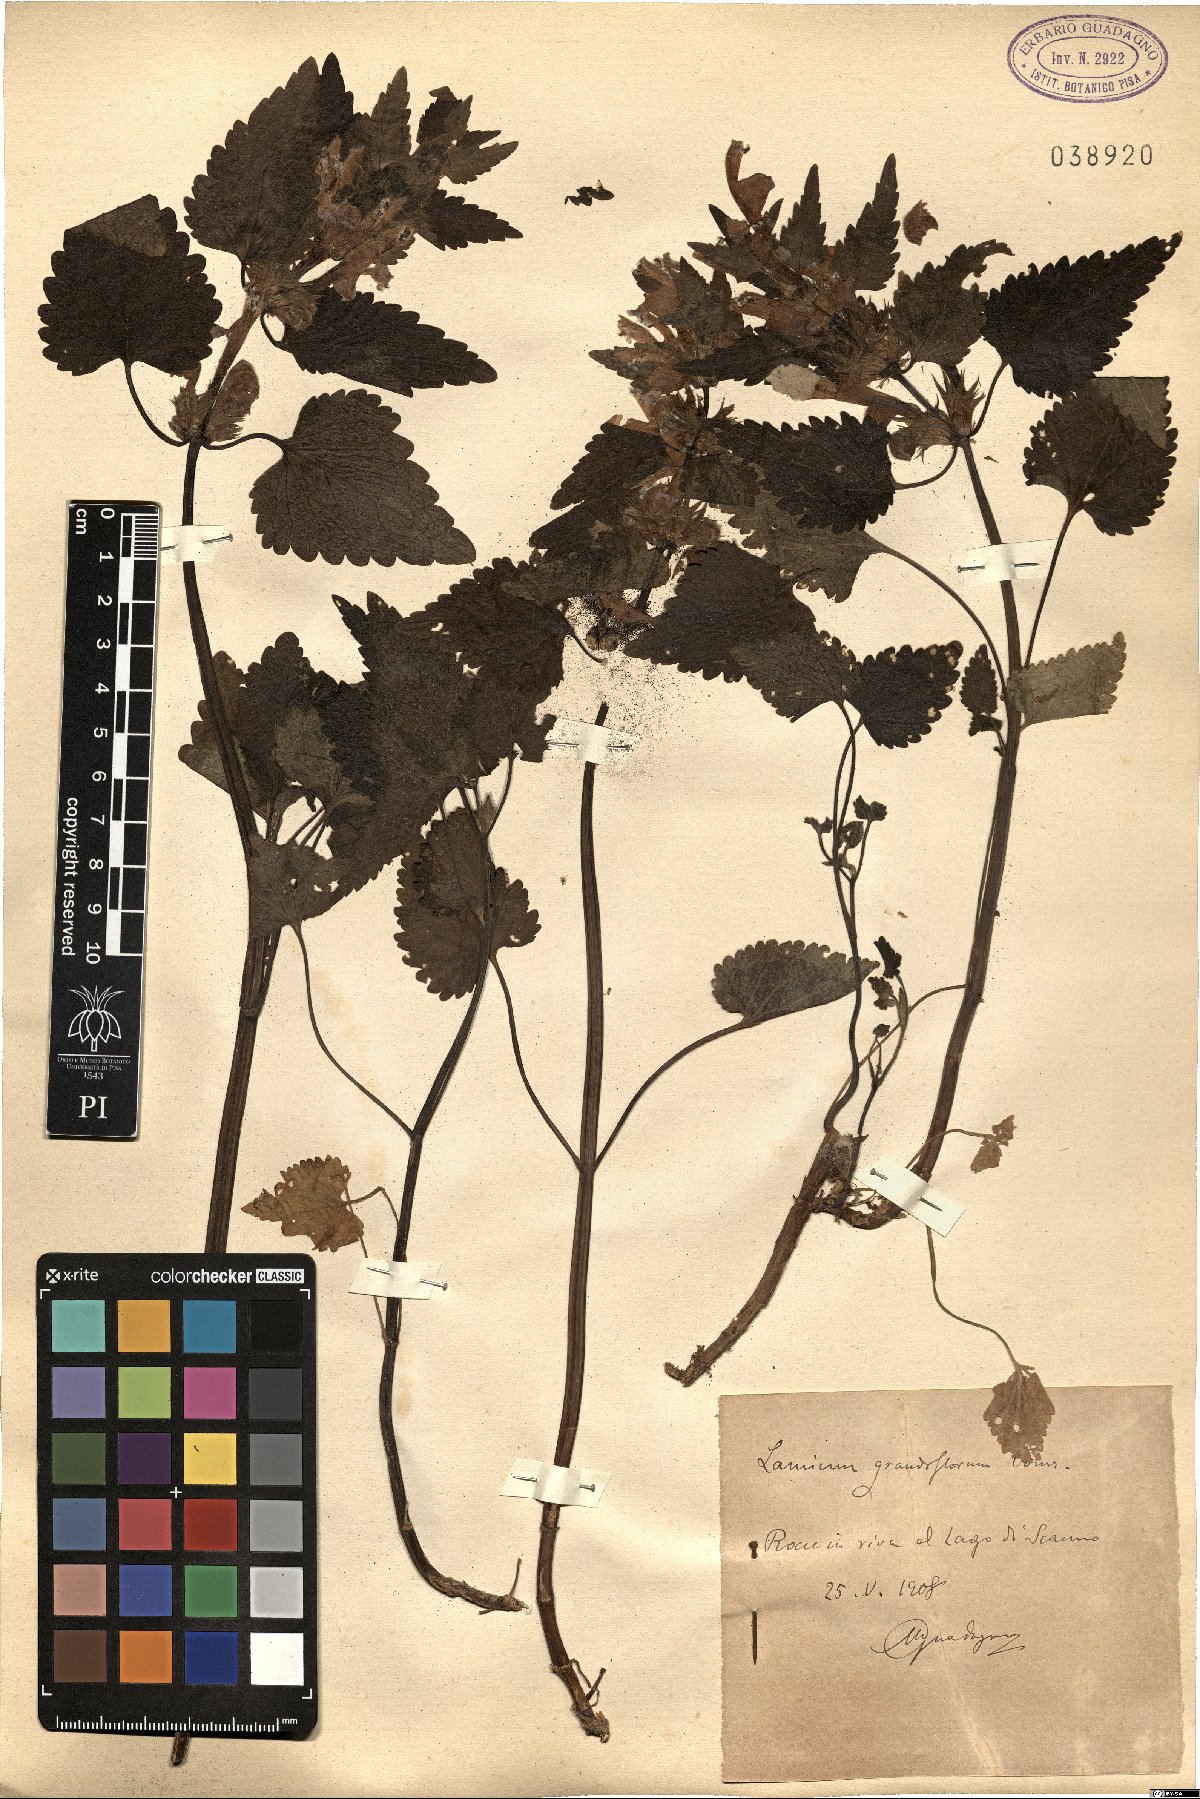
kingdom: Plantae
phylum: Tracheophyta
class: Magnoliopsida
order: Lamiales
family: Lamiaceae
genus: Lamium
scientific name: Lamium garganicum
